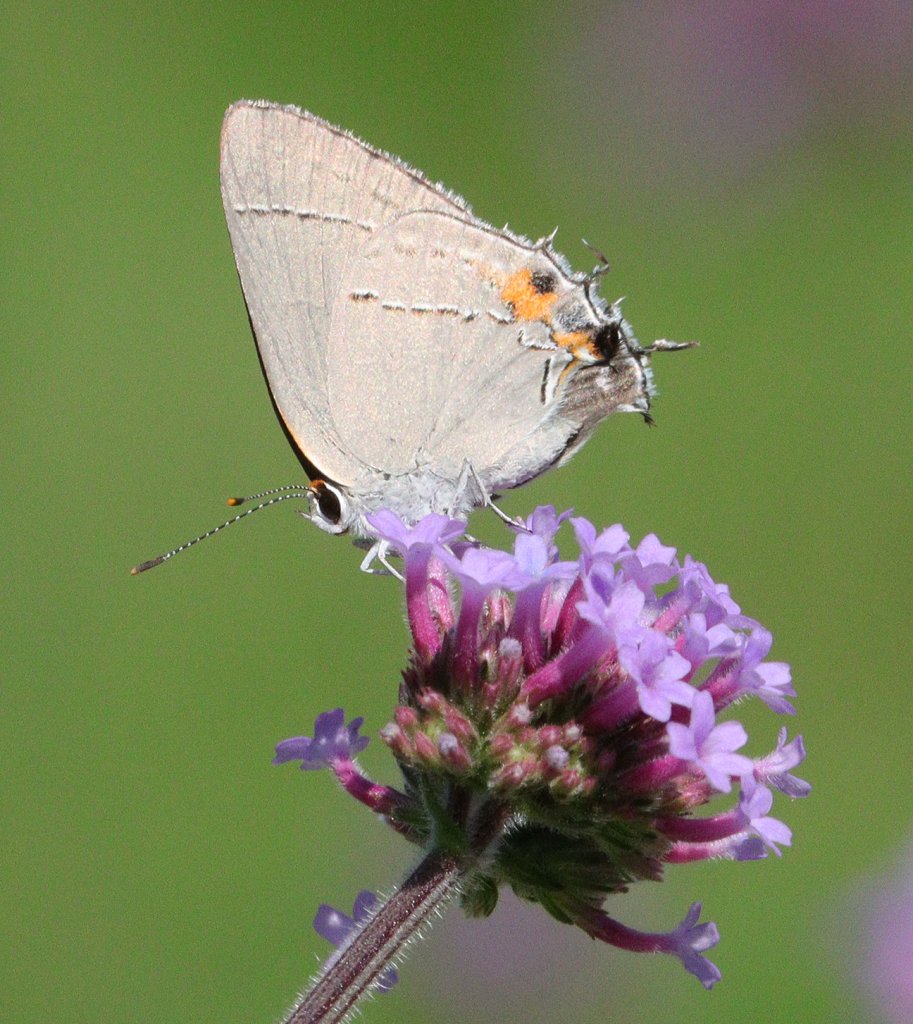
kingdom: Animalia
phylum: Arthropoda
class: Insecta
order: Lepidoptera
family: Lycaenidae
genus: Strymon
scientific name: Strymon melinus
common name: Gray Hairstreak
